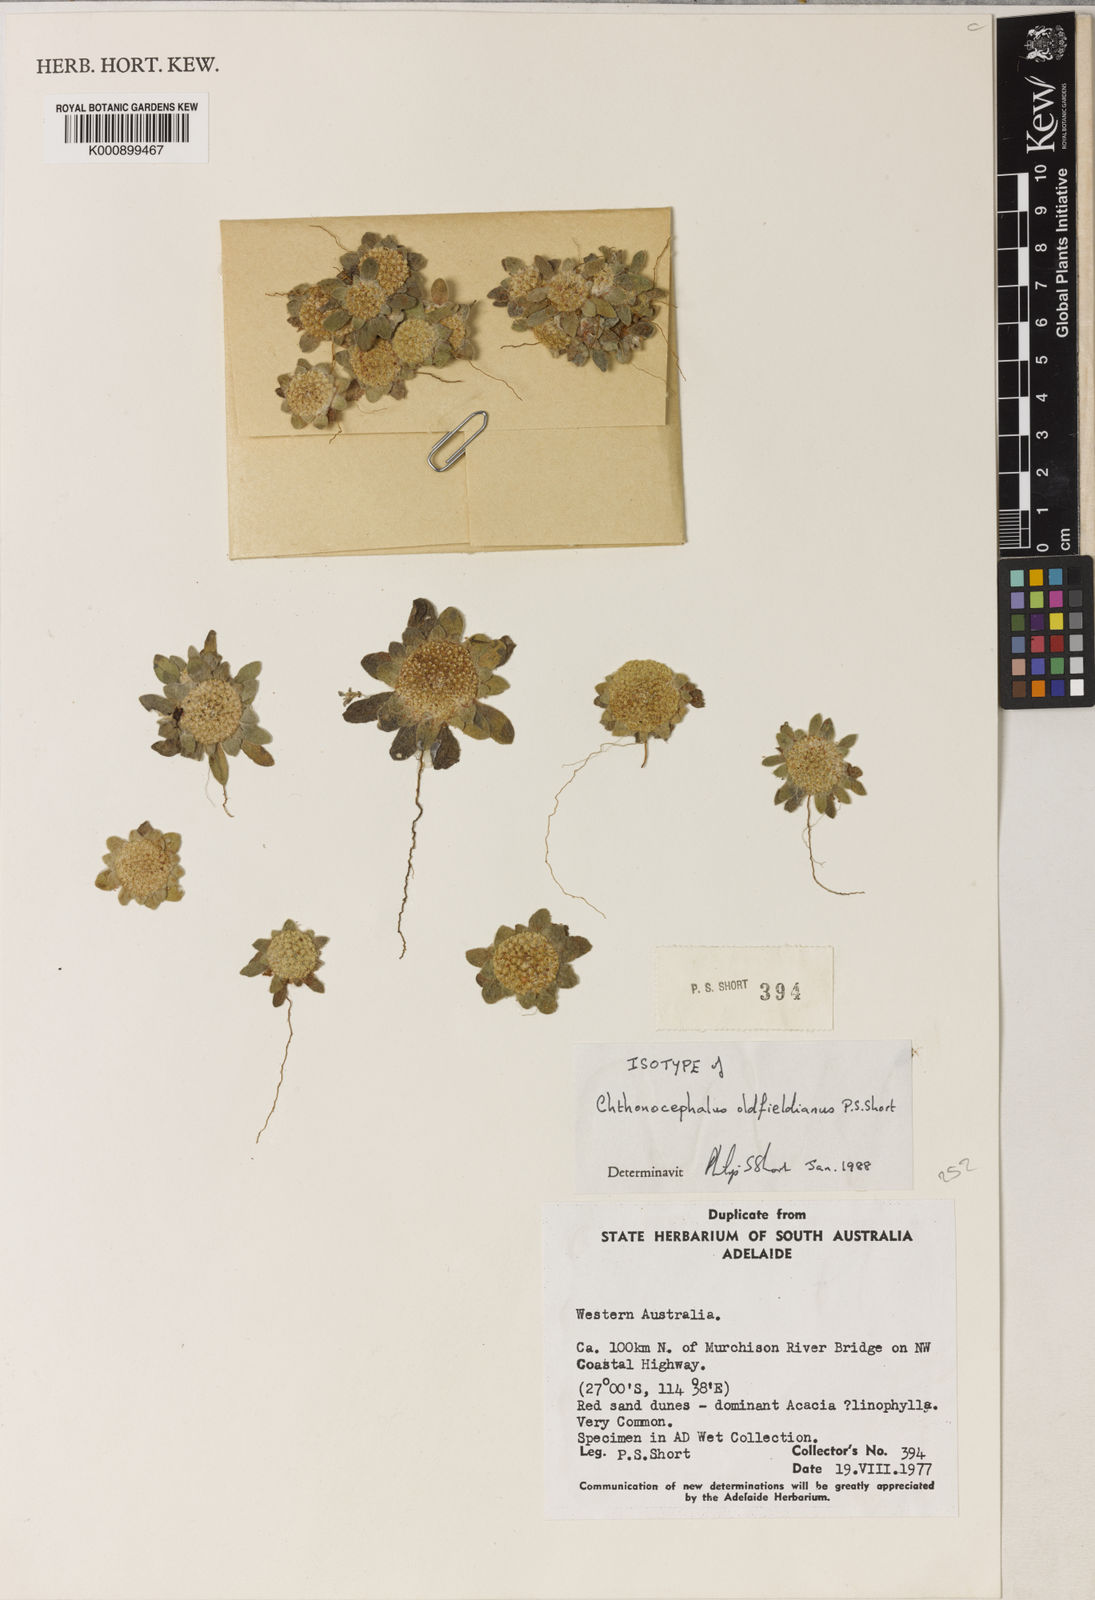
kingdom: Plantae
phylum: Tracheophyta
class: Magnoliopsida
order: Asterales
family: Asteraceae
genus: Chthonocephalus
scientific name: Chthonocephalus oldfieldianus
